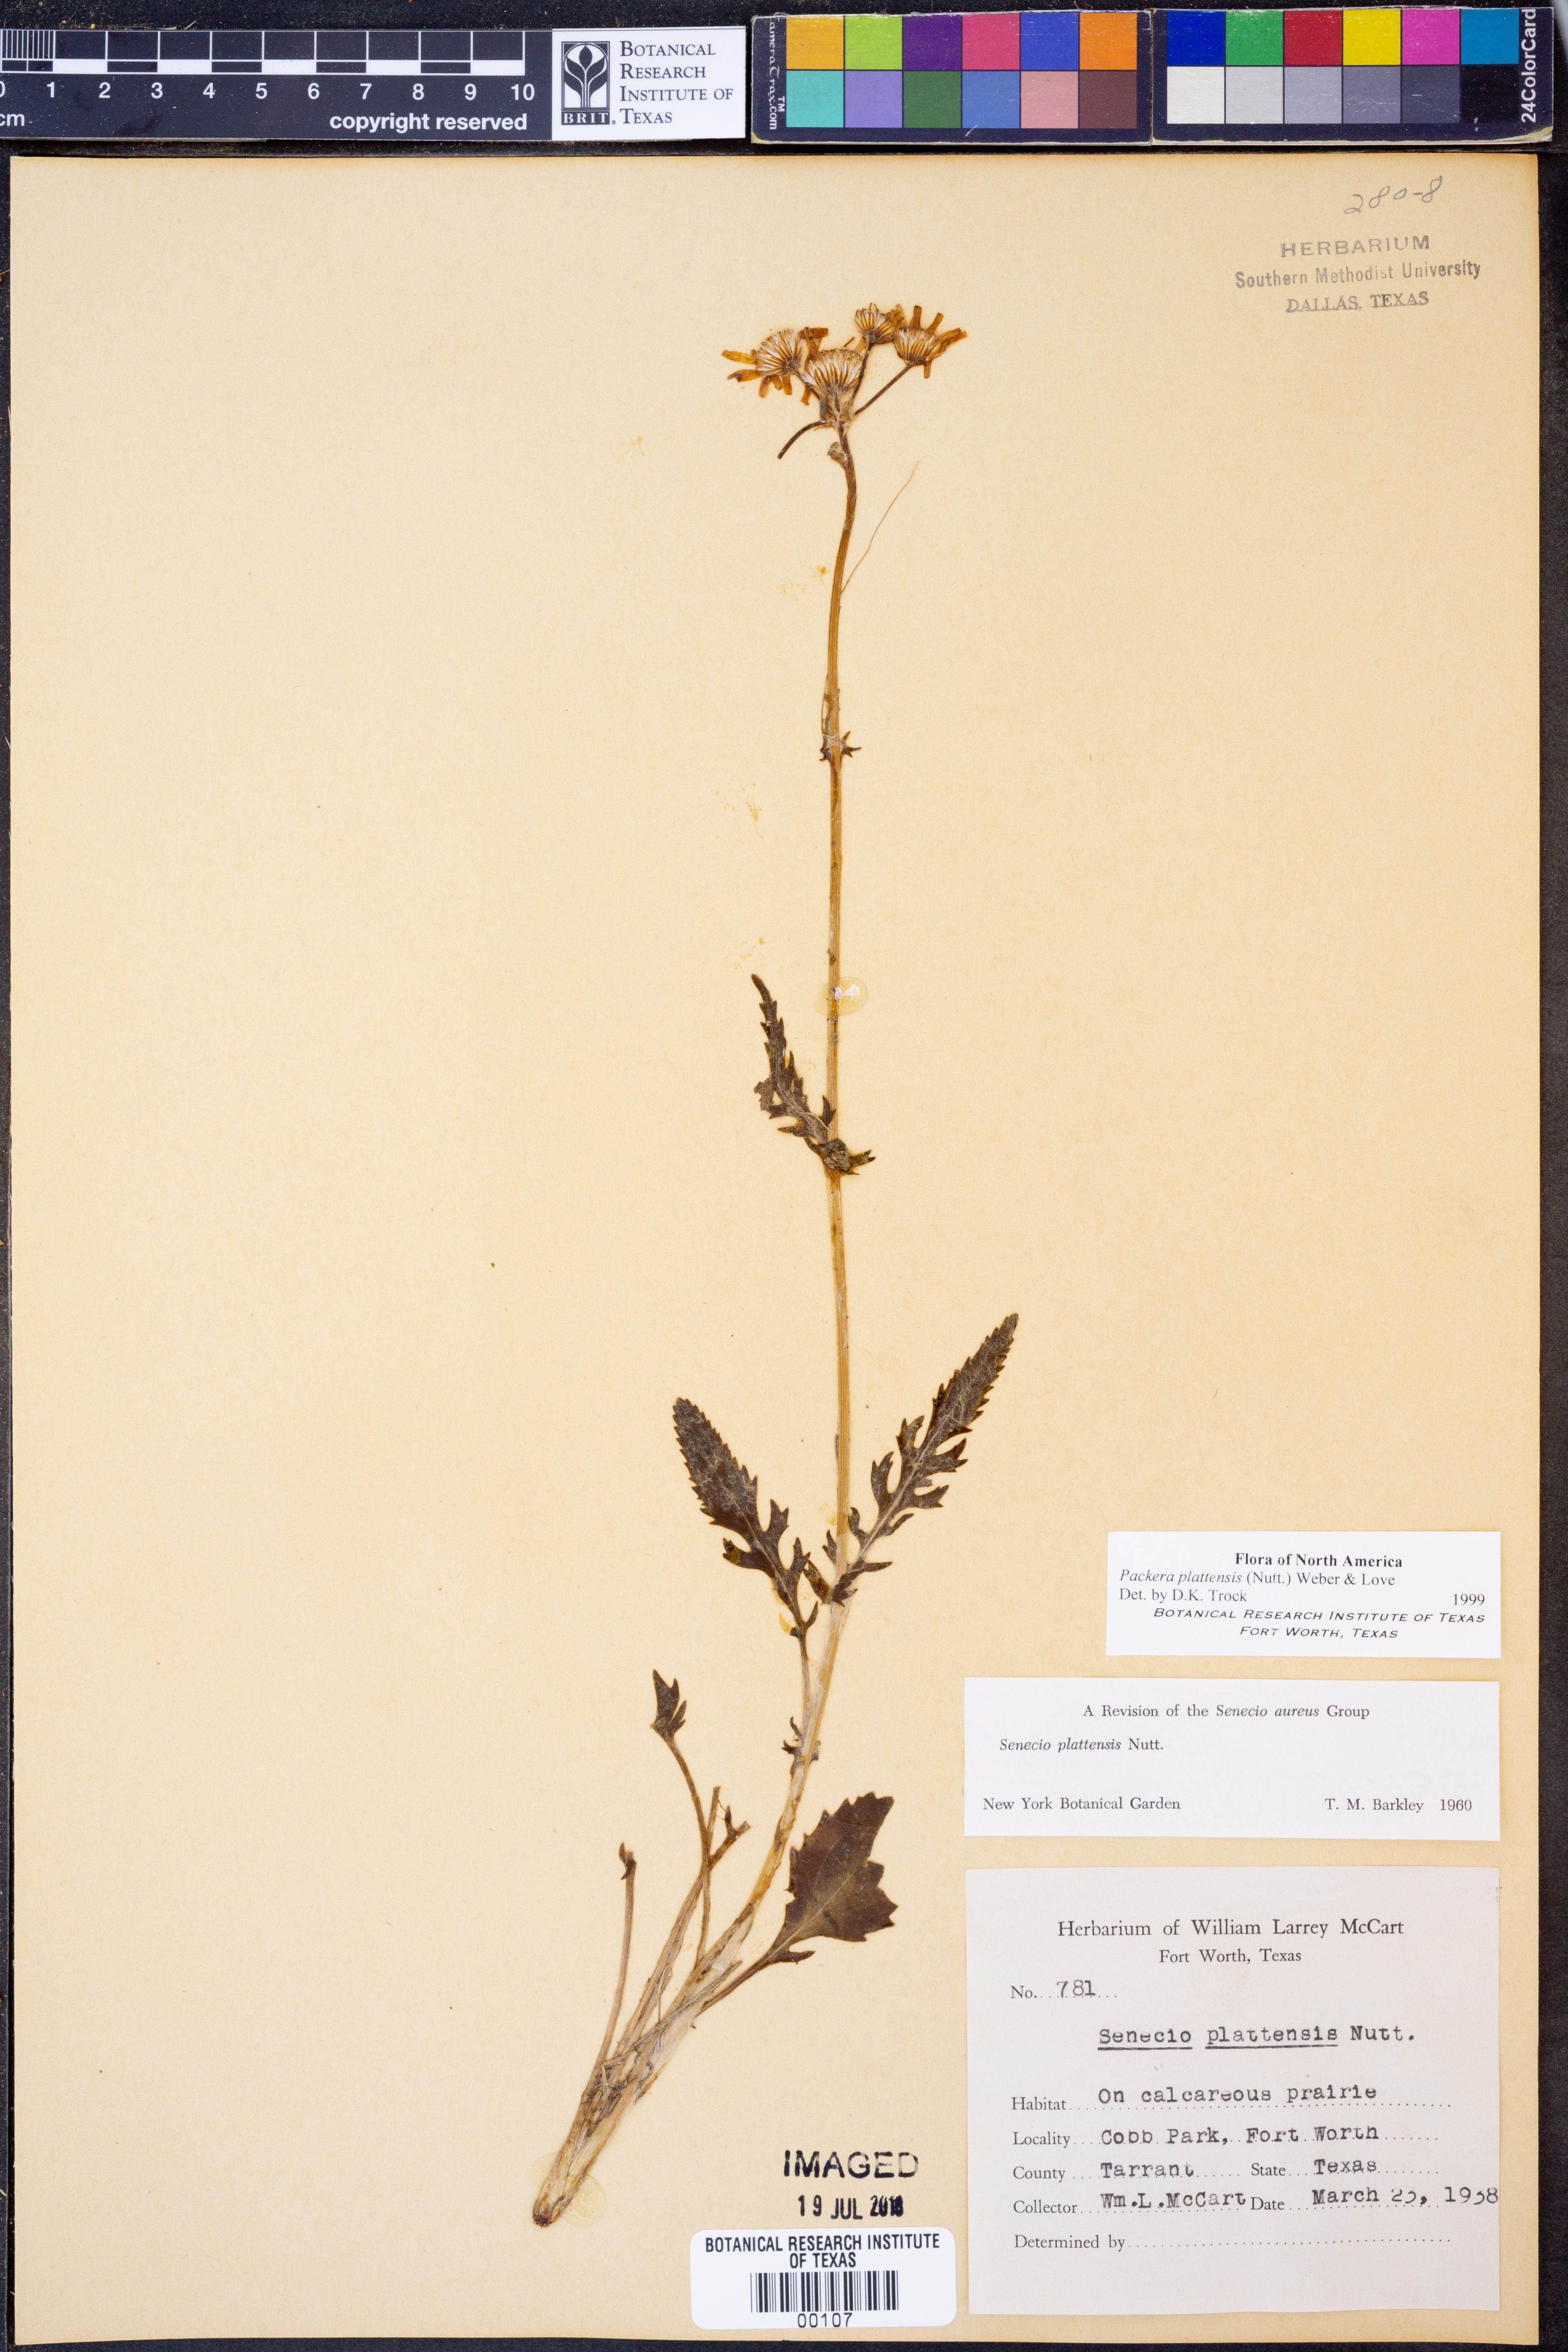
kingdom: Plantae
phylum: Tracheophyta
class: Magnoliopsida
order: Asterales
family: Asteraceae
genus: Packera
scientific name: Packera plattensis
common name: Prairie groundsel
